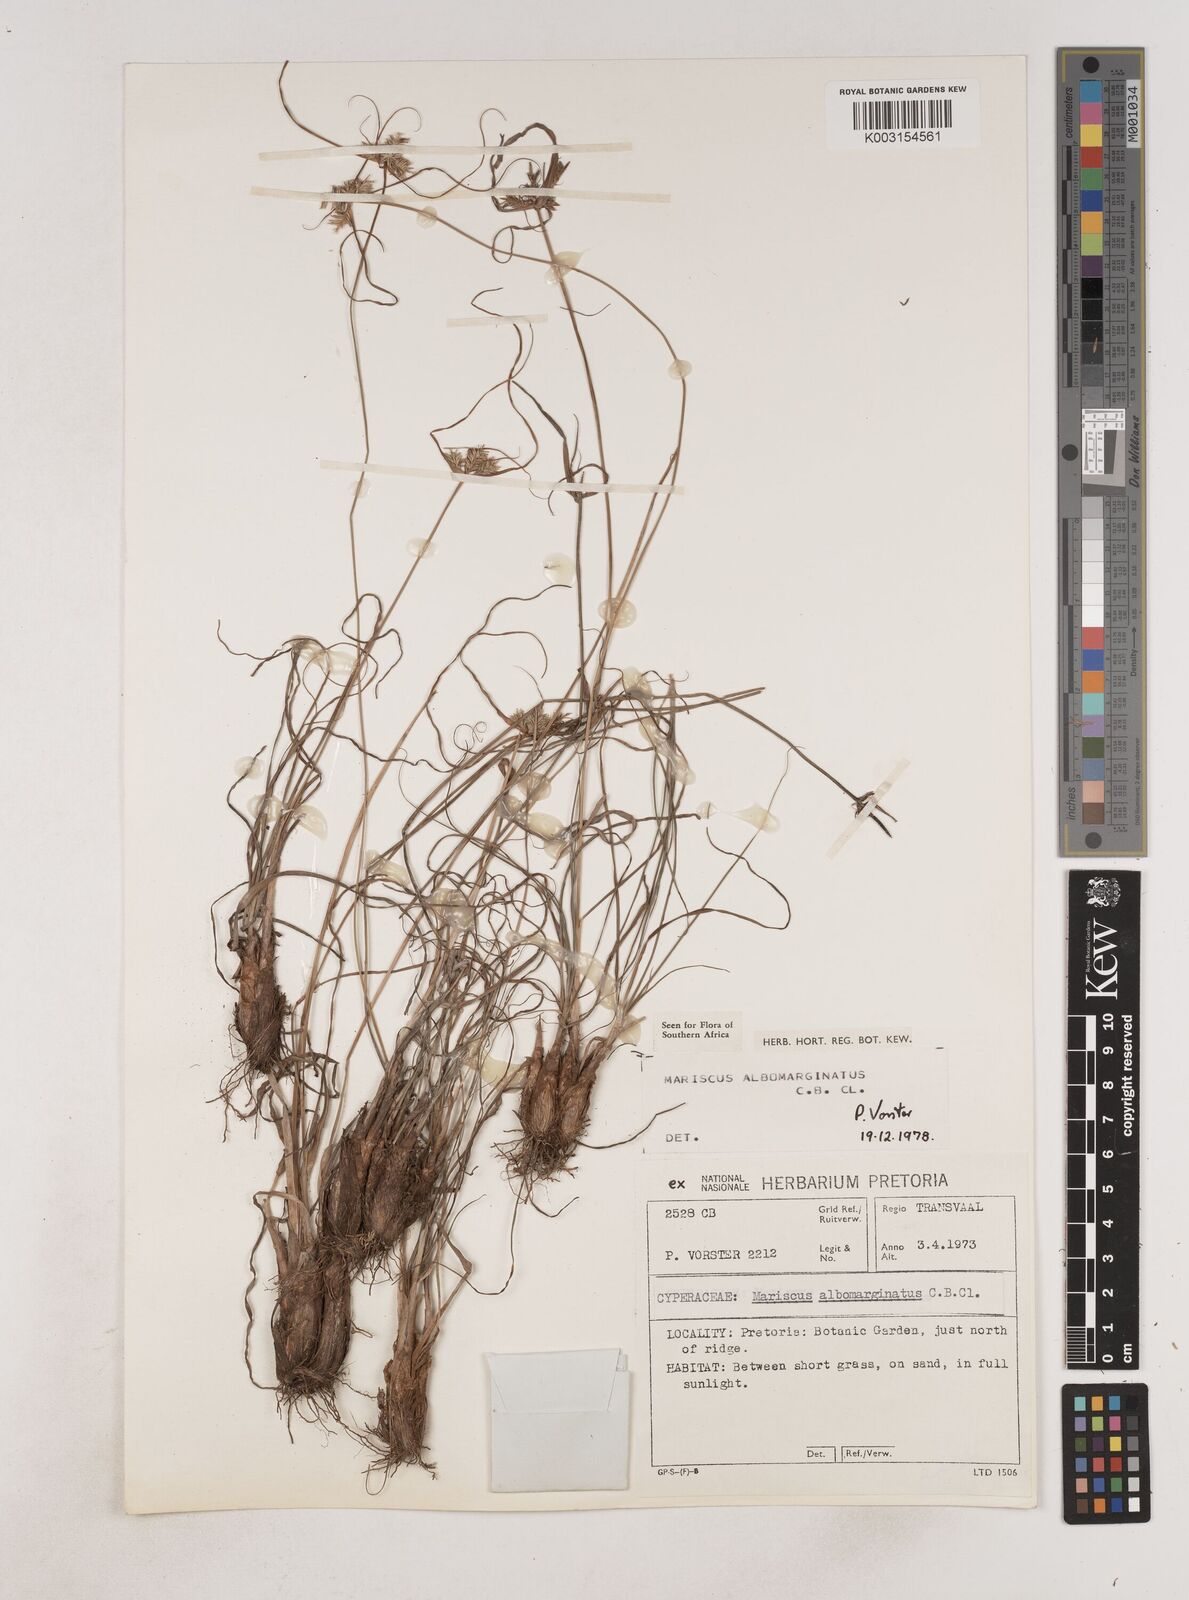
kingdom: Plantae
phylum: Tracheophyta
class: Liliopsida
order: Poales
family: Cyperaceae
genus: Cyperus
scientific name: Cyperus indecorus
